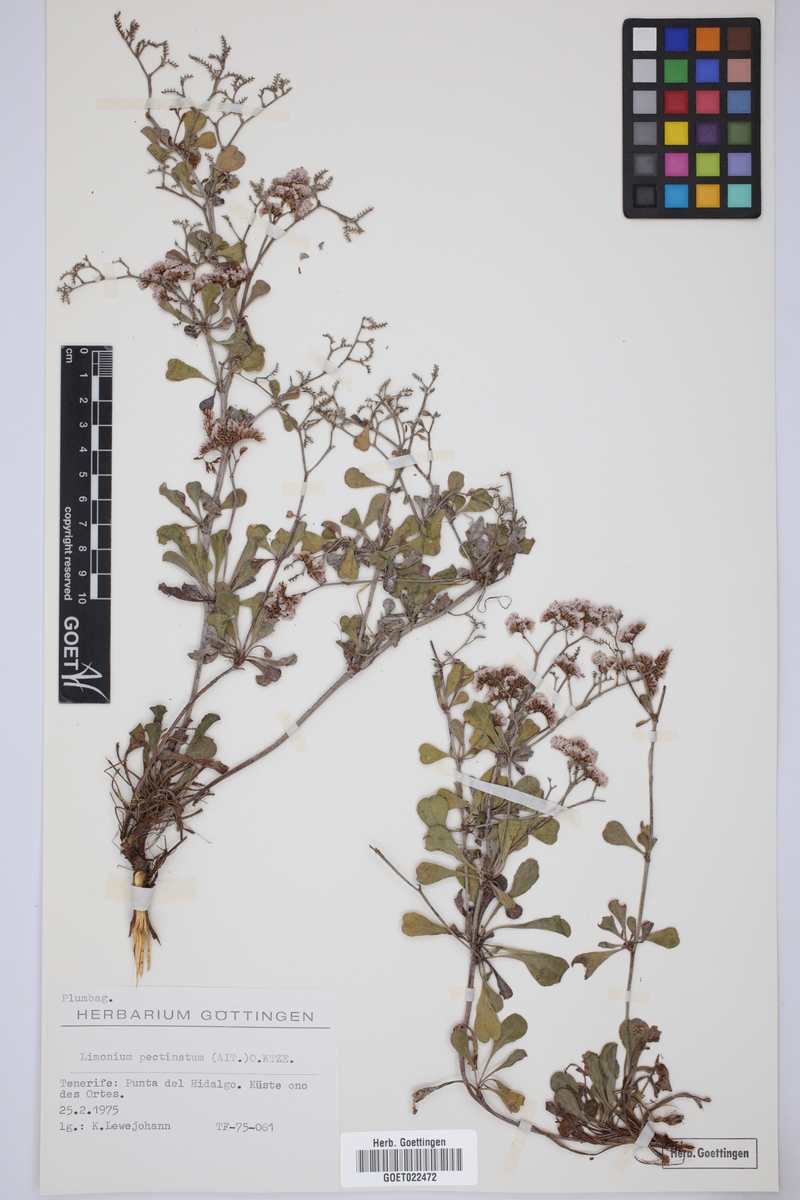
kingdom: Plantae
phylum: Tracheophyta
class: Magnoliopsida
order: Caryophyllales
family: Plumbaginaceae
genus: Limonium
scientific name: Limonium pectinatum
